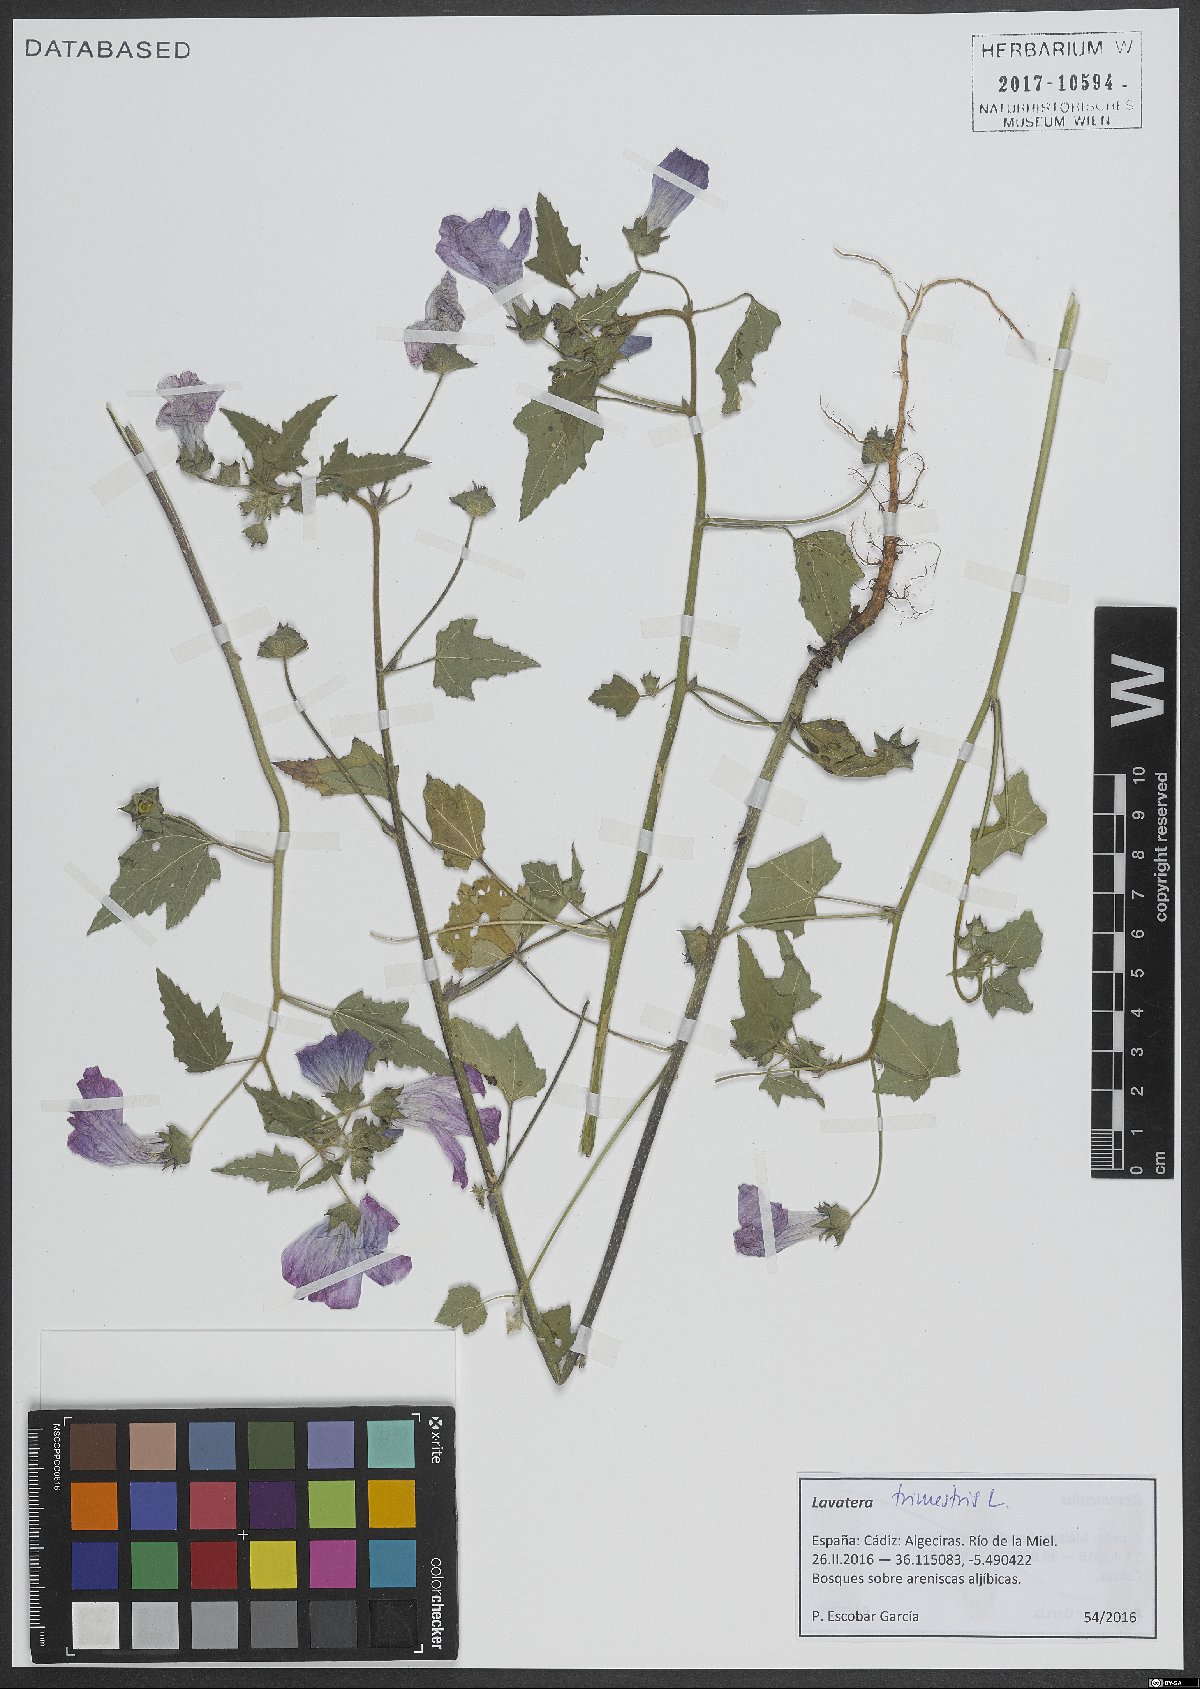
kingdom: Plantae
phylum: Tracheophyta
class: Magnoliopsida
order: Malvales
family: Malvaceae
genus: Malva
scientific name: Malva trimestris
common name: Royal mallow
